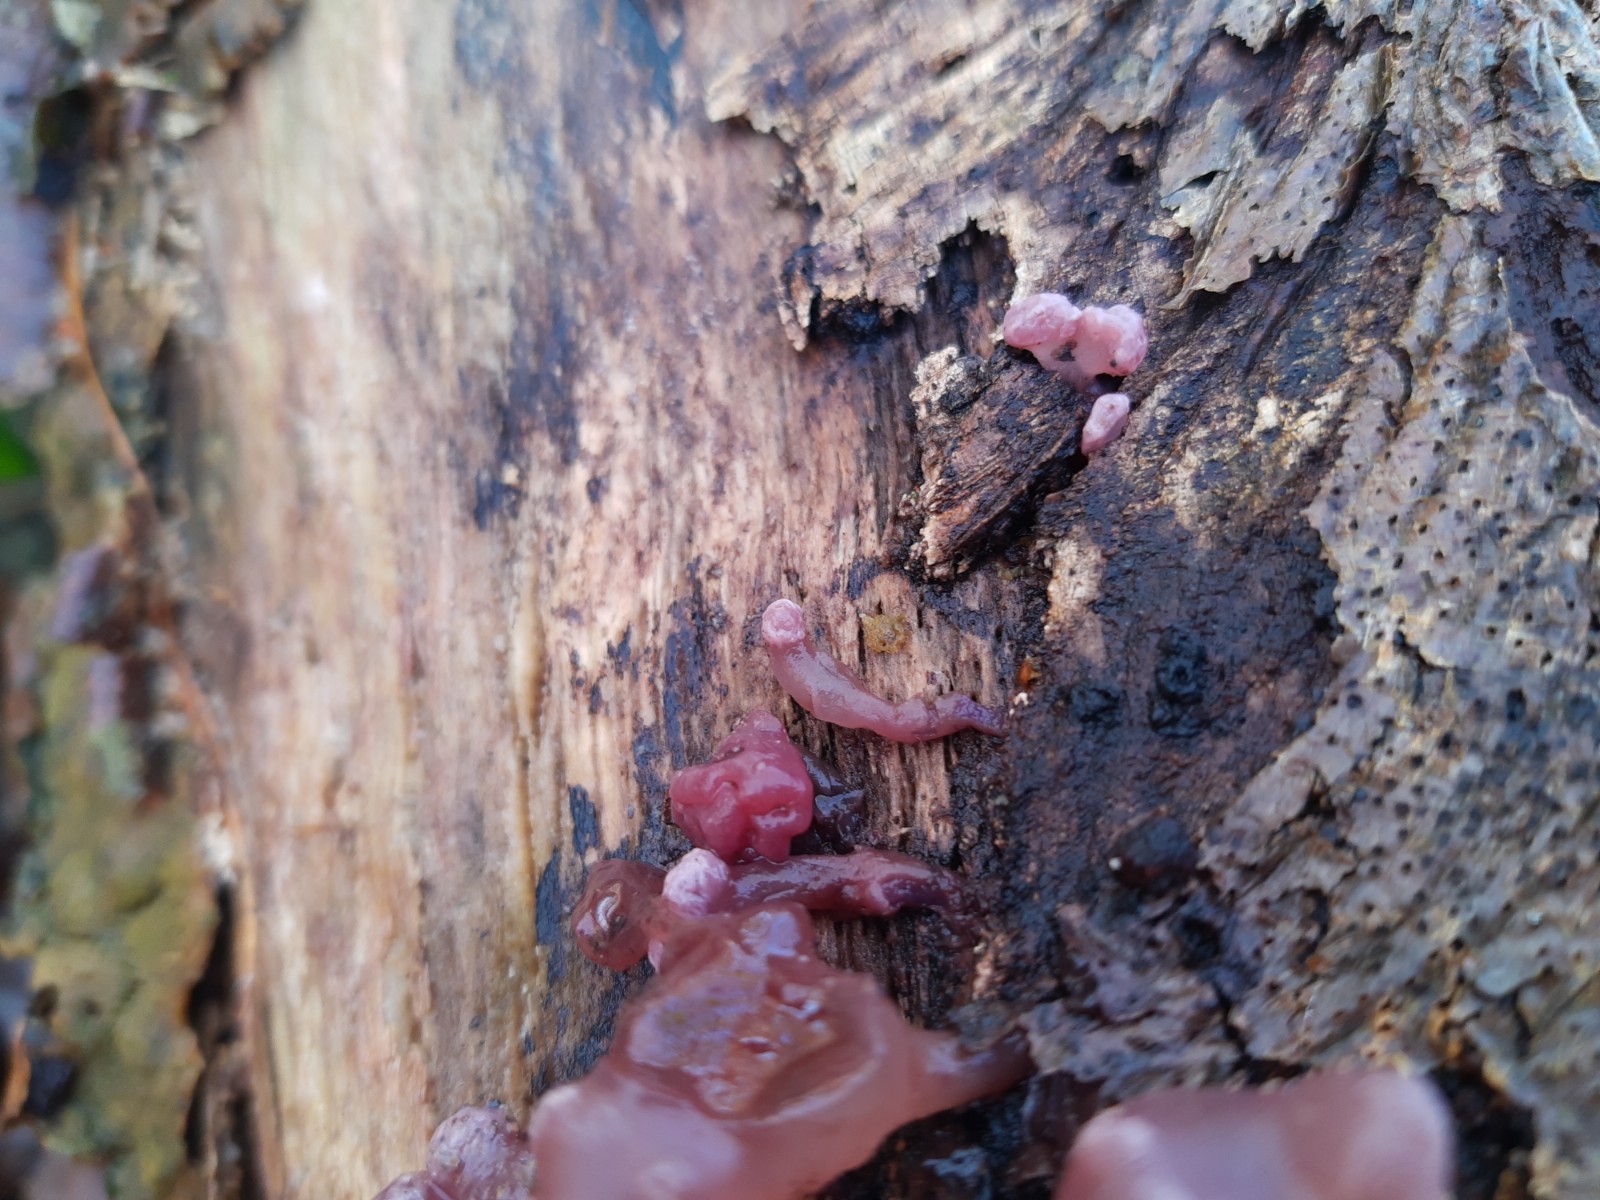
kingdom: Fungi
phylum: Ascomycota
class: Leotiomycetes
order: Helotiales
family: Gelatinodiscaceae
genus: Ascocoryne
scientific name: Ascocoryne sarcoides
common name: rødlilla sejskive
